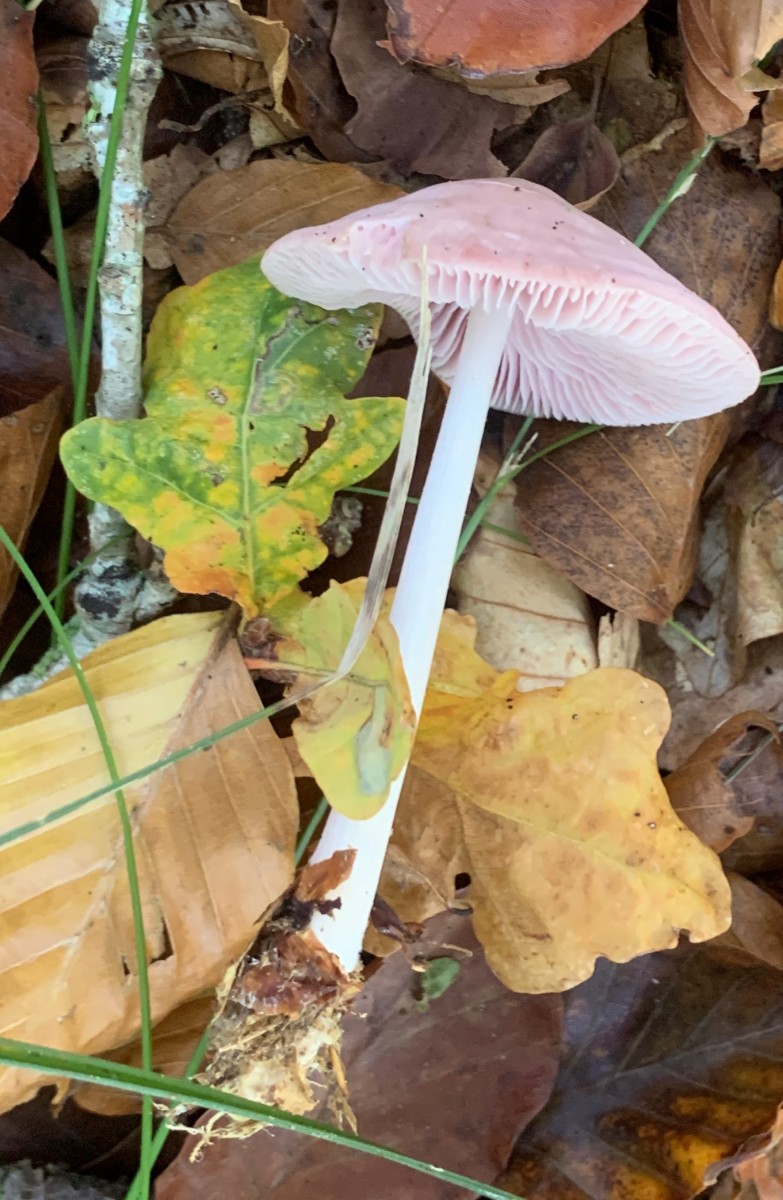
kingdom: Fungi
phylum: Basidiomycota
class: Agaricomycetes
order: Agaricales
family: Mycenaceae
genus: Mycena
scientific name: Mycena rosea
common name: rosa huesvamp
